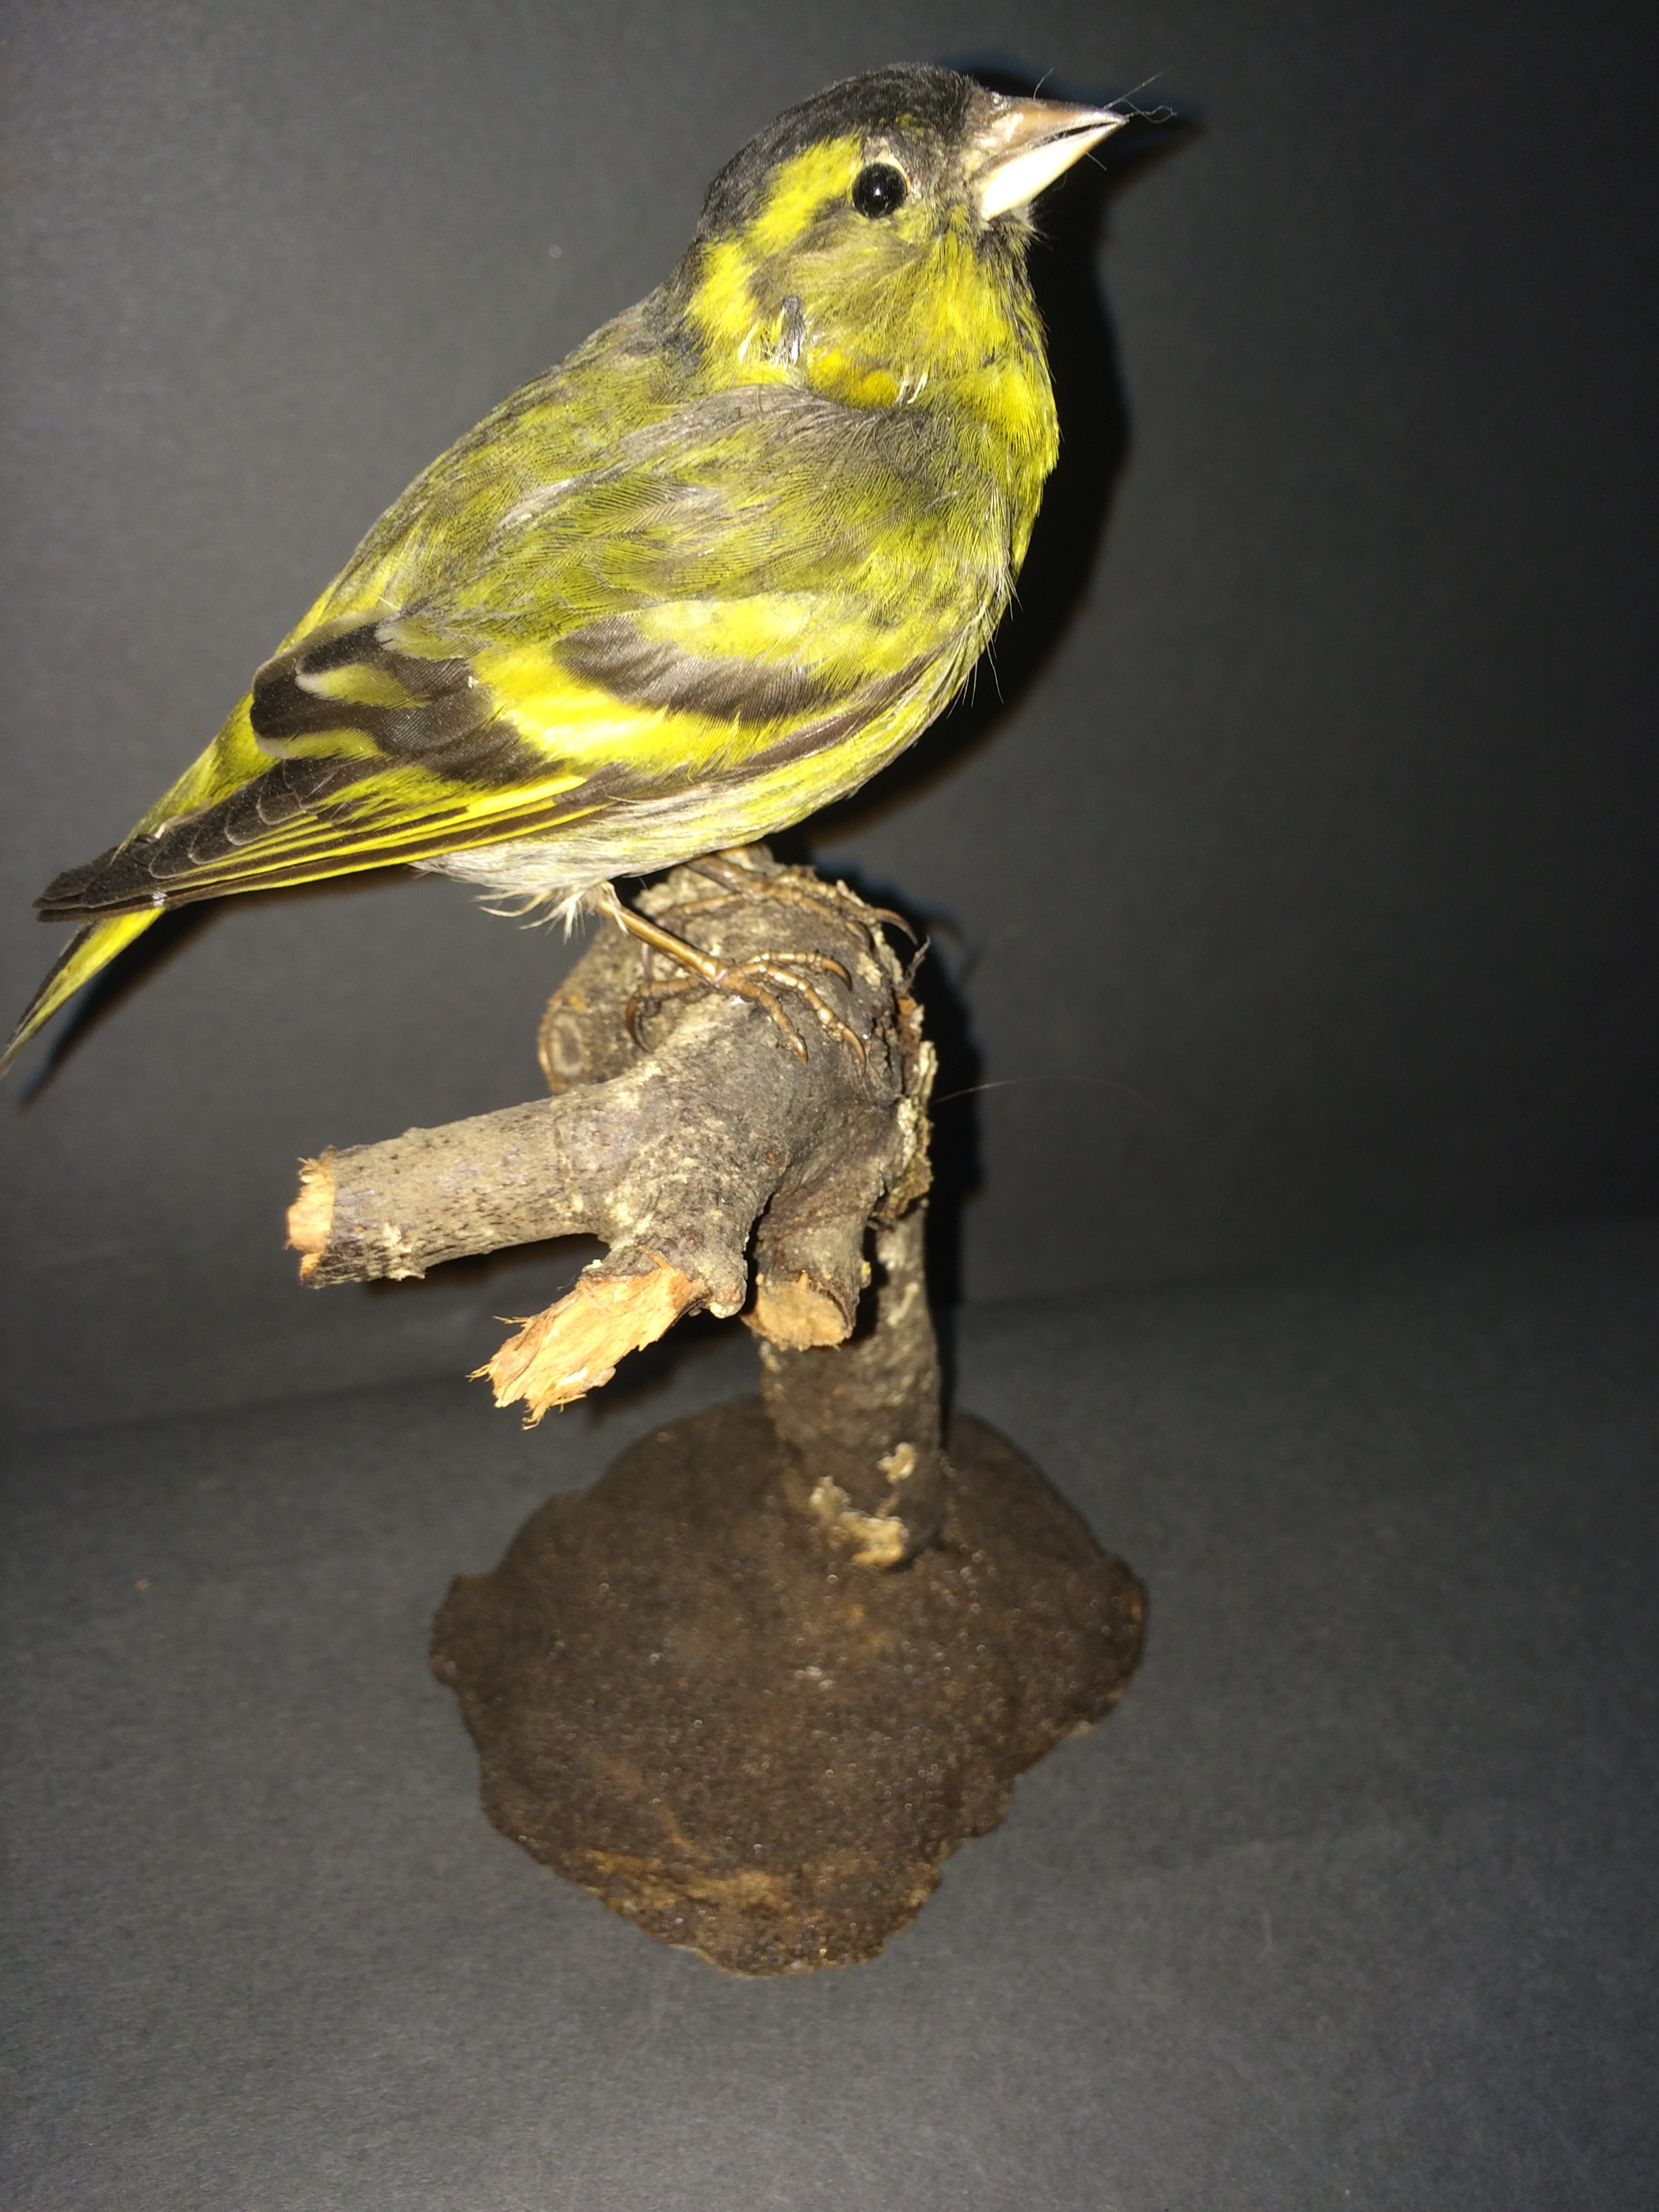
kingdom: Animalia
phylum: Chordata
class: Aves
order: Passeriformes
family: Fringillidae
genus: Spinus
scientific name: Spinus spinus
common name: Eurasian siskin
